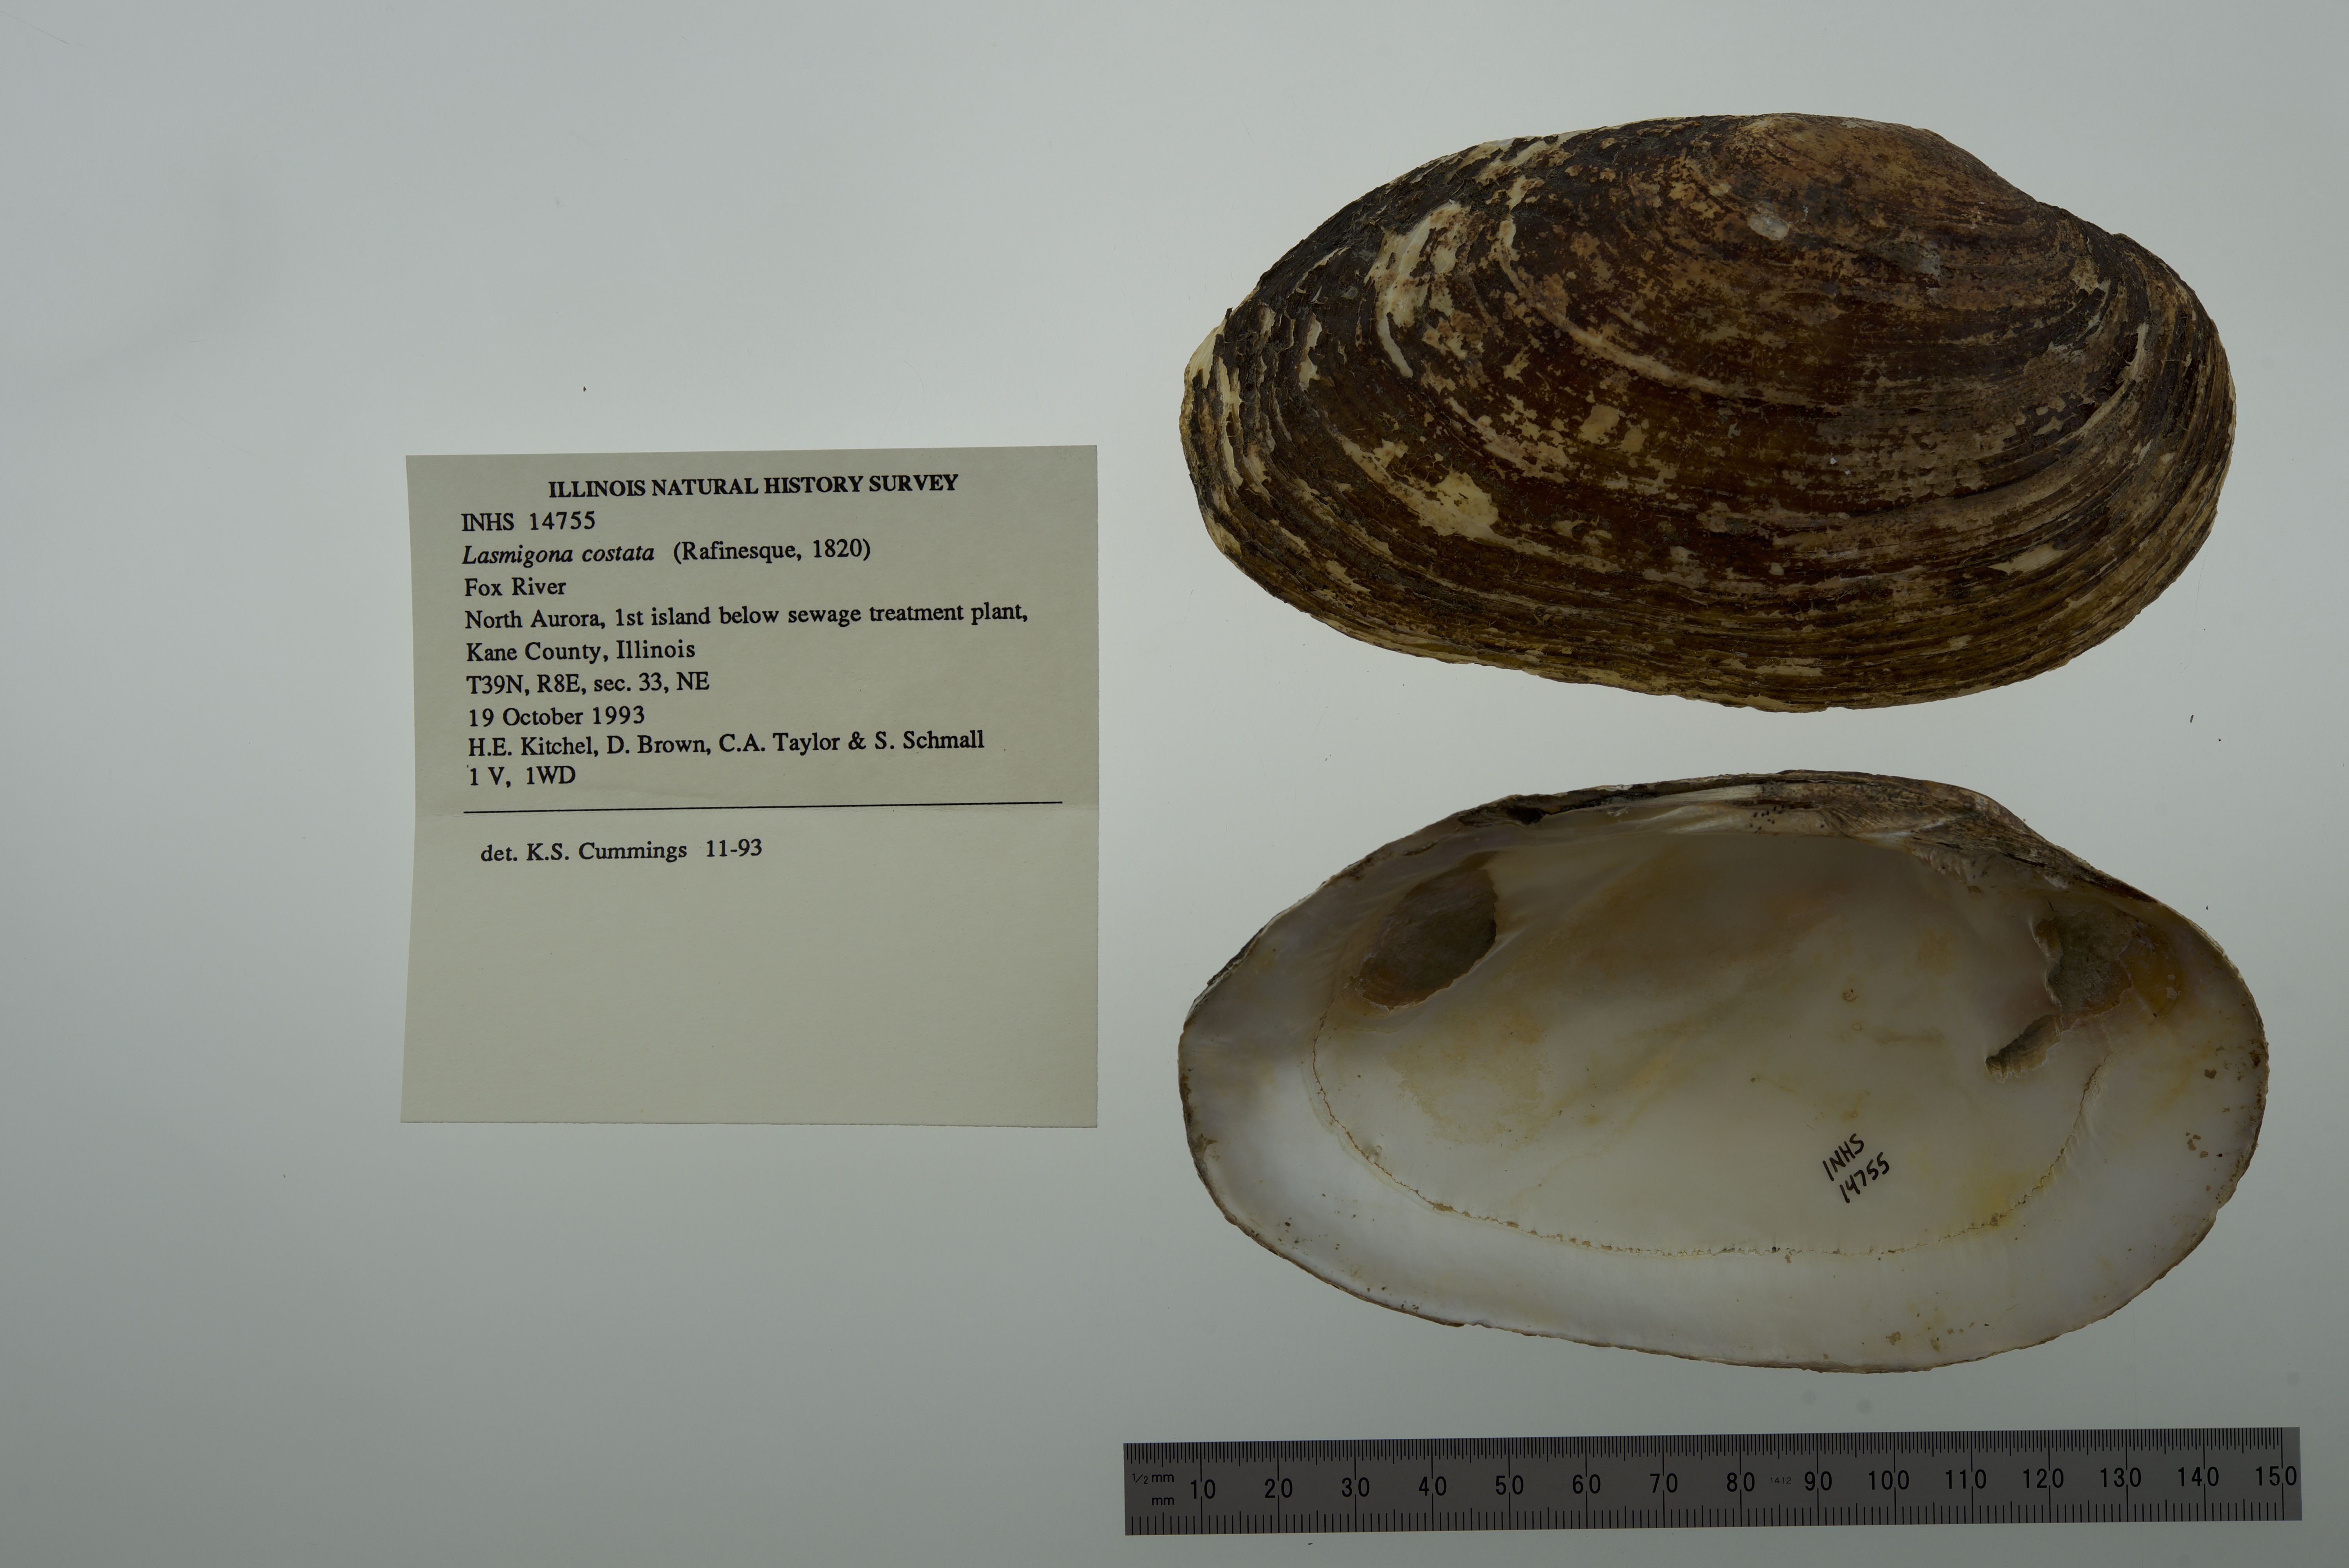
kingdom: Animalia
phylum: Mollusca
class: Bivalvia
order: Unionida
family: Unionidae
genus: Lasmigona
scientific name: Lasmigona costata
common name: Flutedshell
